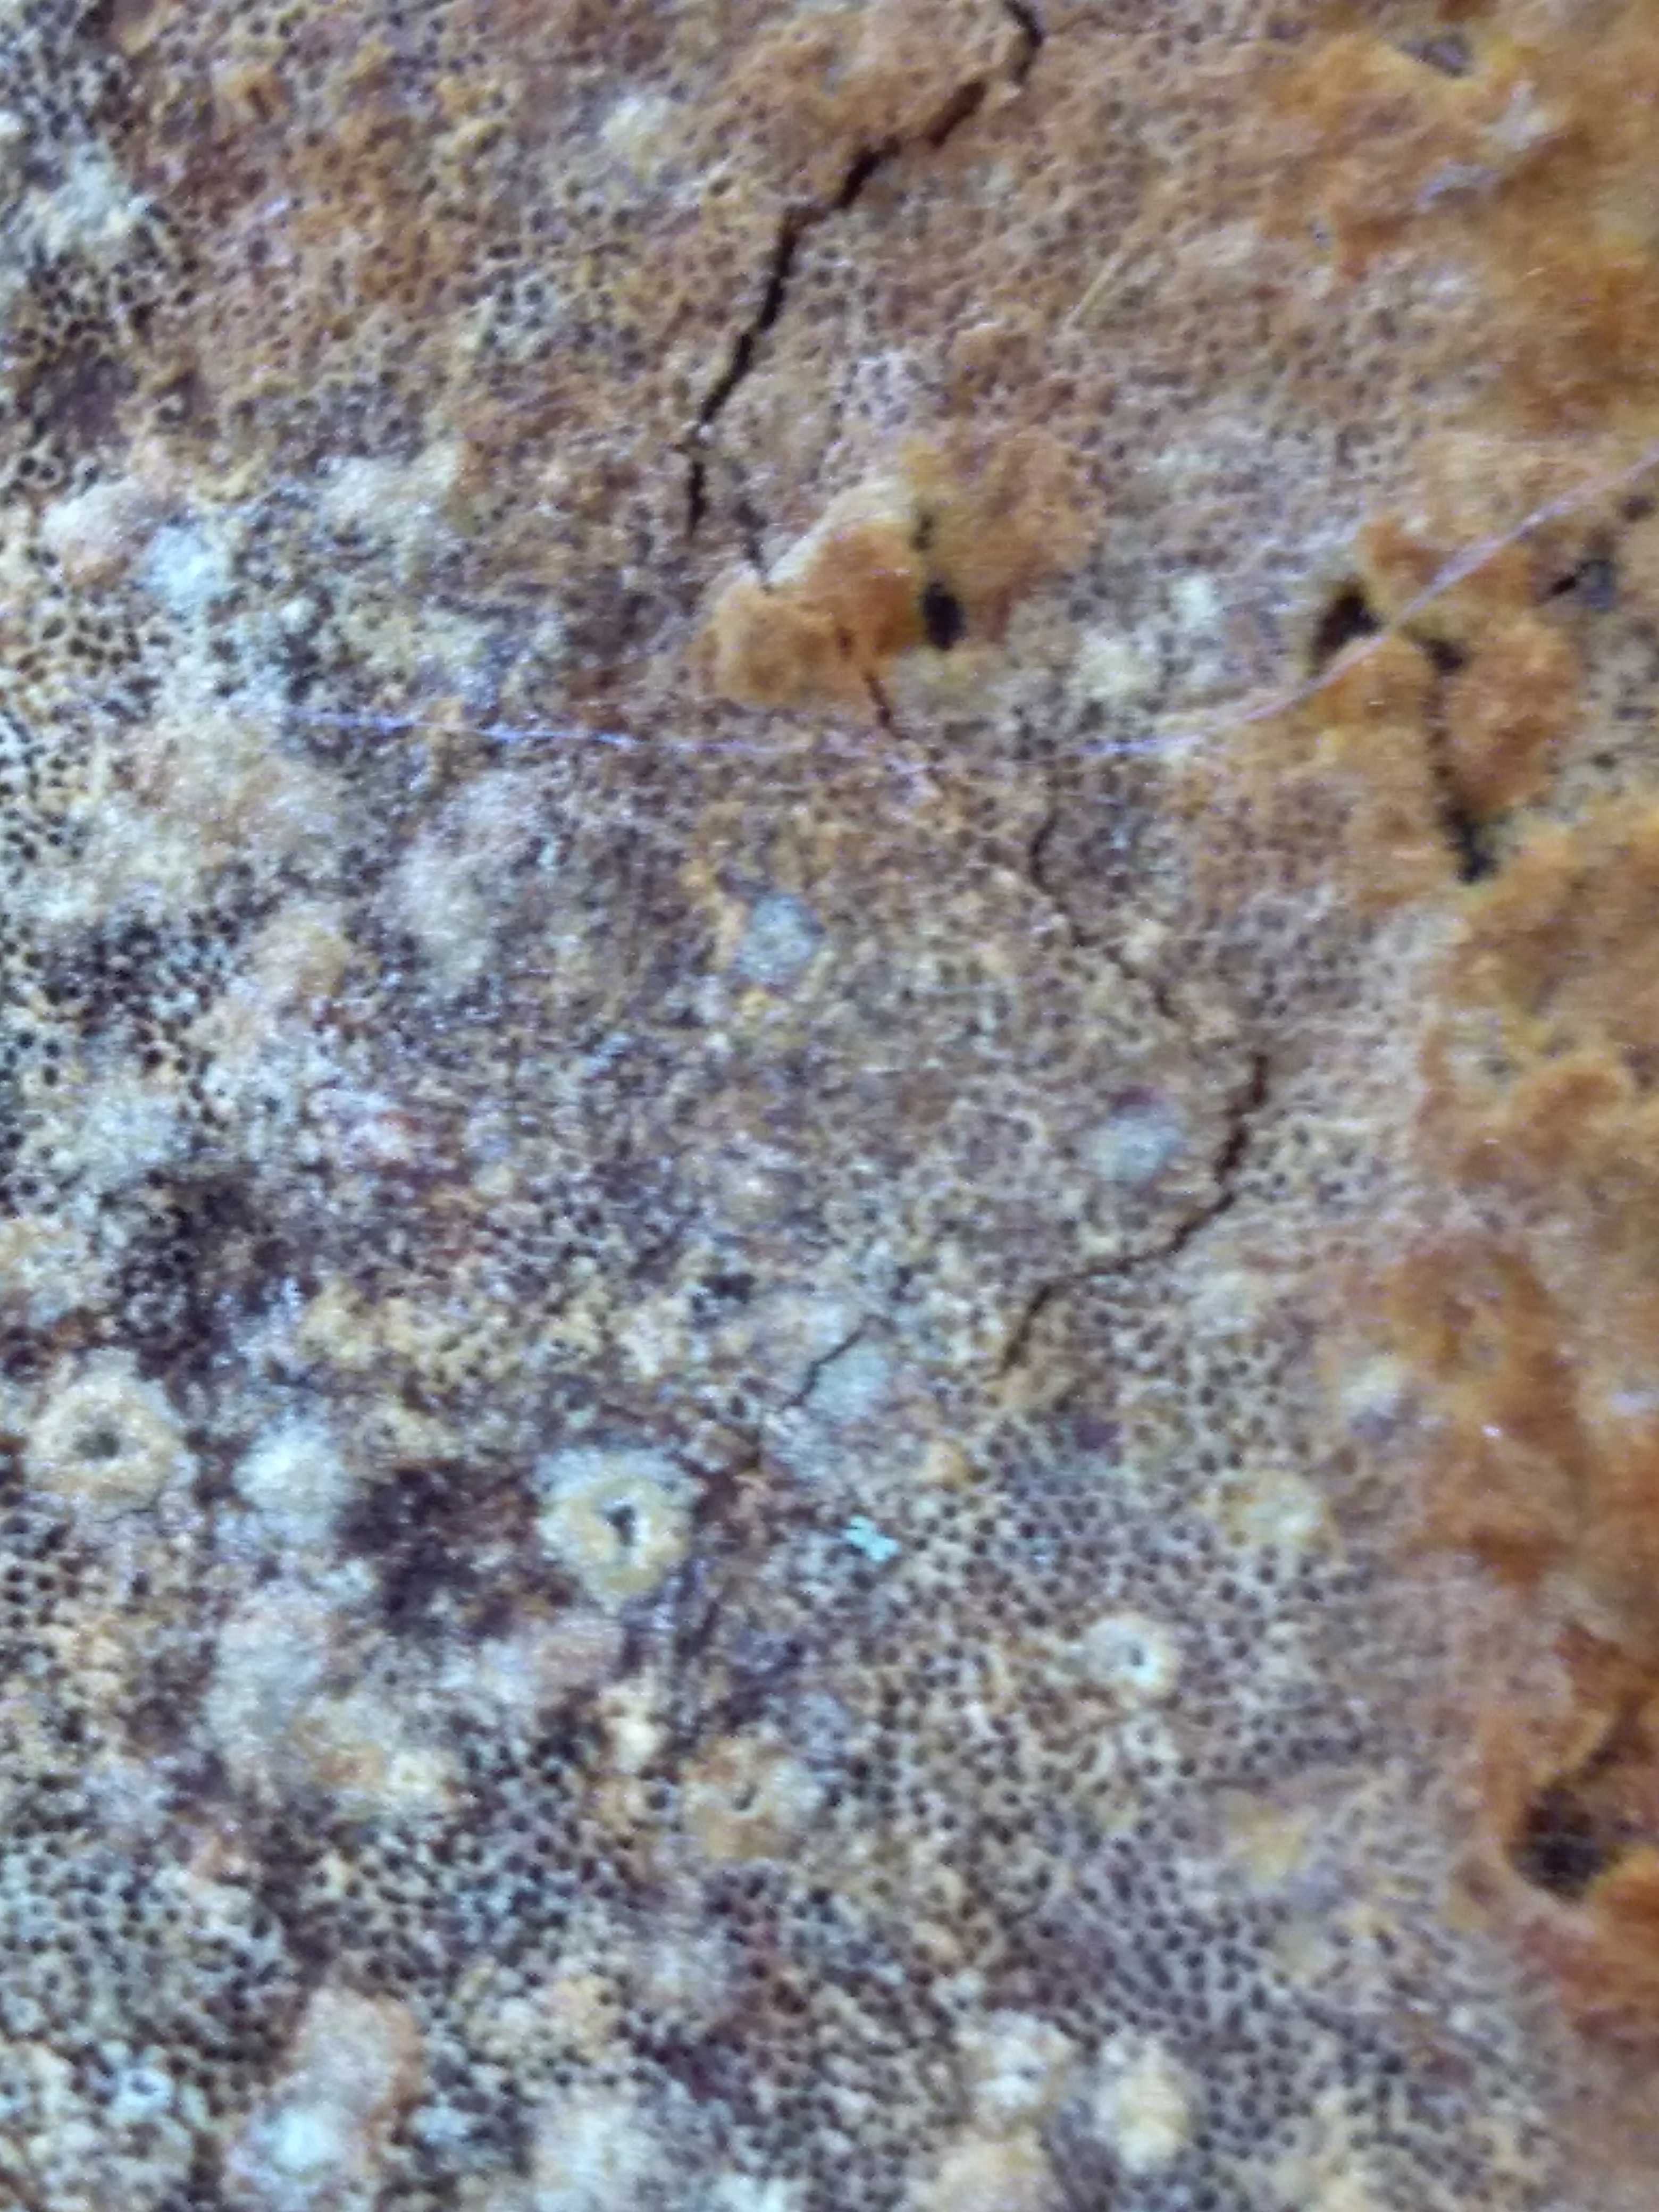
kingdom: Fungi
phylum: Basidiomycota
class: Agaricomycetes
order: Hymenochaetales
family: Hymenochaetaceae
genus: Fuscoporia
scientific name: Fuscoporia ferrea
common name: skorpe-ildporesvamp
